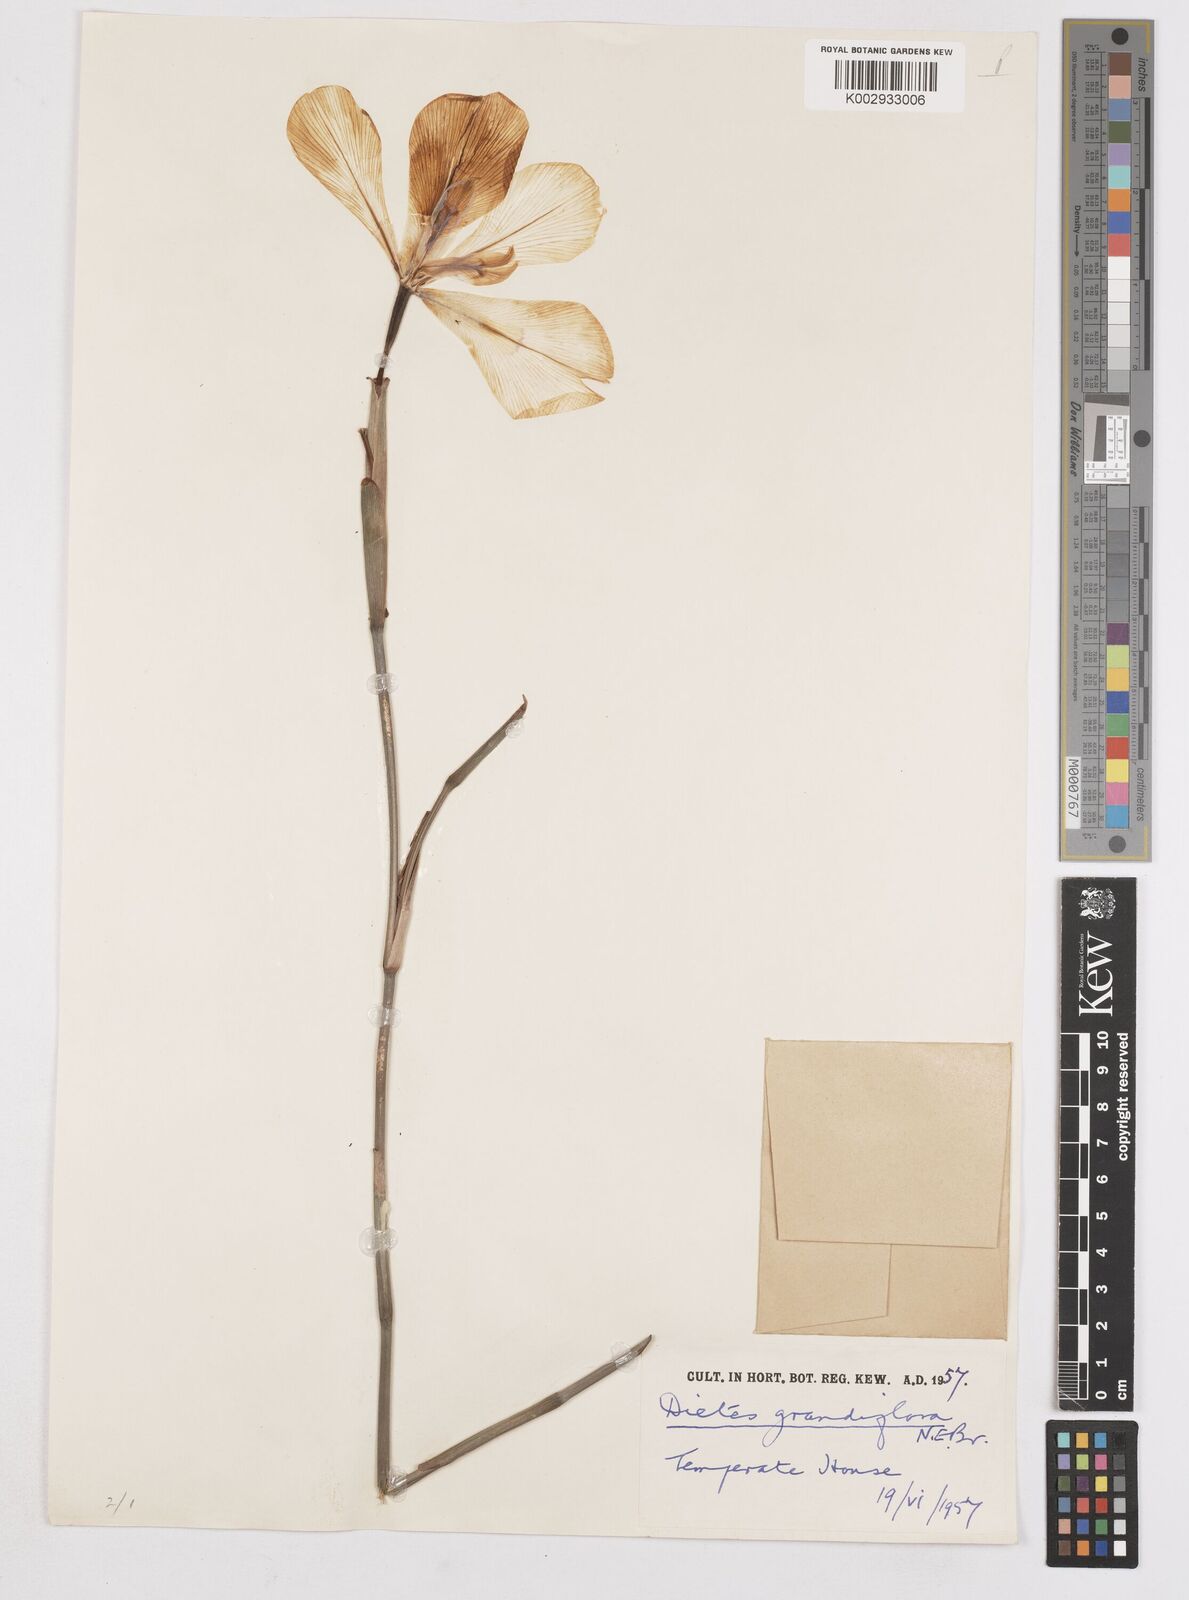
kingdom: Plantae
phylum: Tracheophyta
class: Liliopsida
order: Asparagales
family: Iridaceae
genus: Dietes
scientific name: Dietes grandiflora
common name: Wild iris
